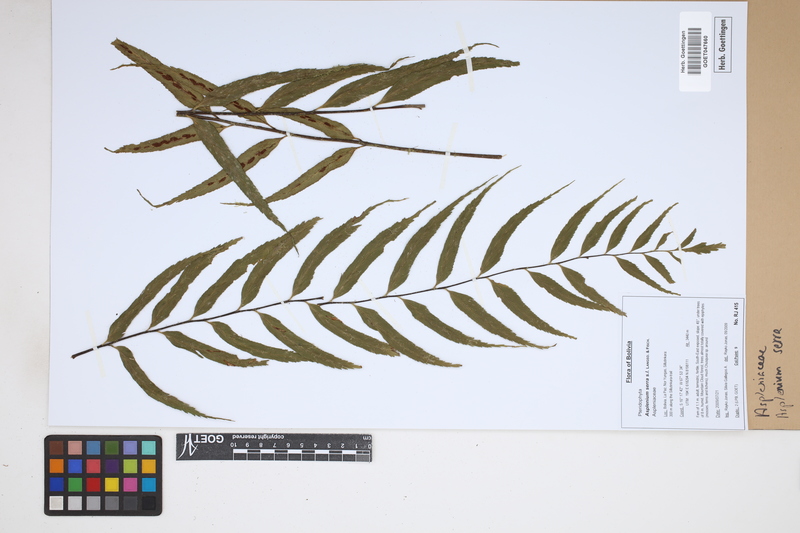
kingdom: Plantae
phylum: Tracheophyta
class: Polypodiopsida
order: Polypodiales
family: Aspleniaceae
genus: Asplenium
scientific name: Asplenium serra
